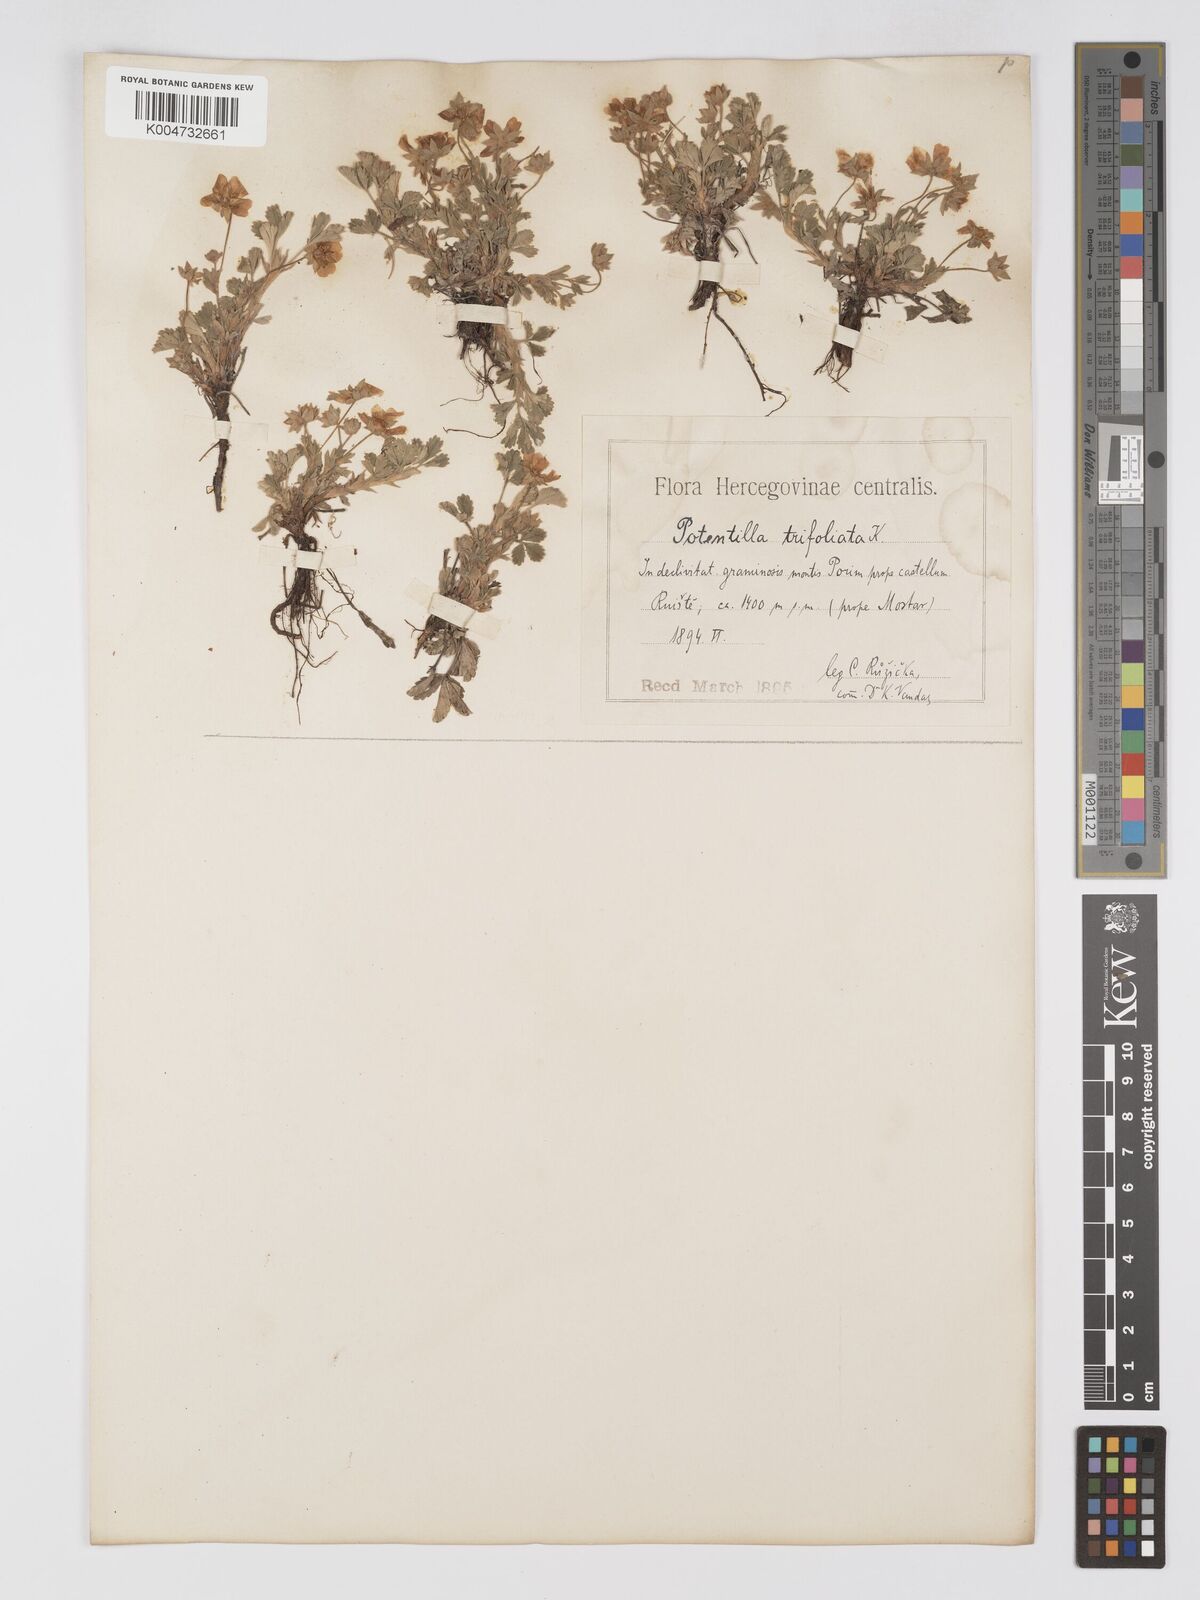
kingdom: Plantae
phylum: Tracheophyta
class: Magnoliopsida
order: Rosales
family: Rosaceae
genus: Potentilla
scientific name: Potentilla cinerea
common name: Ashy cinquefoil
